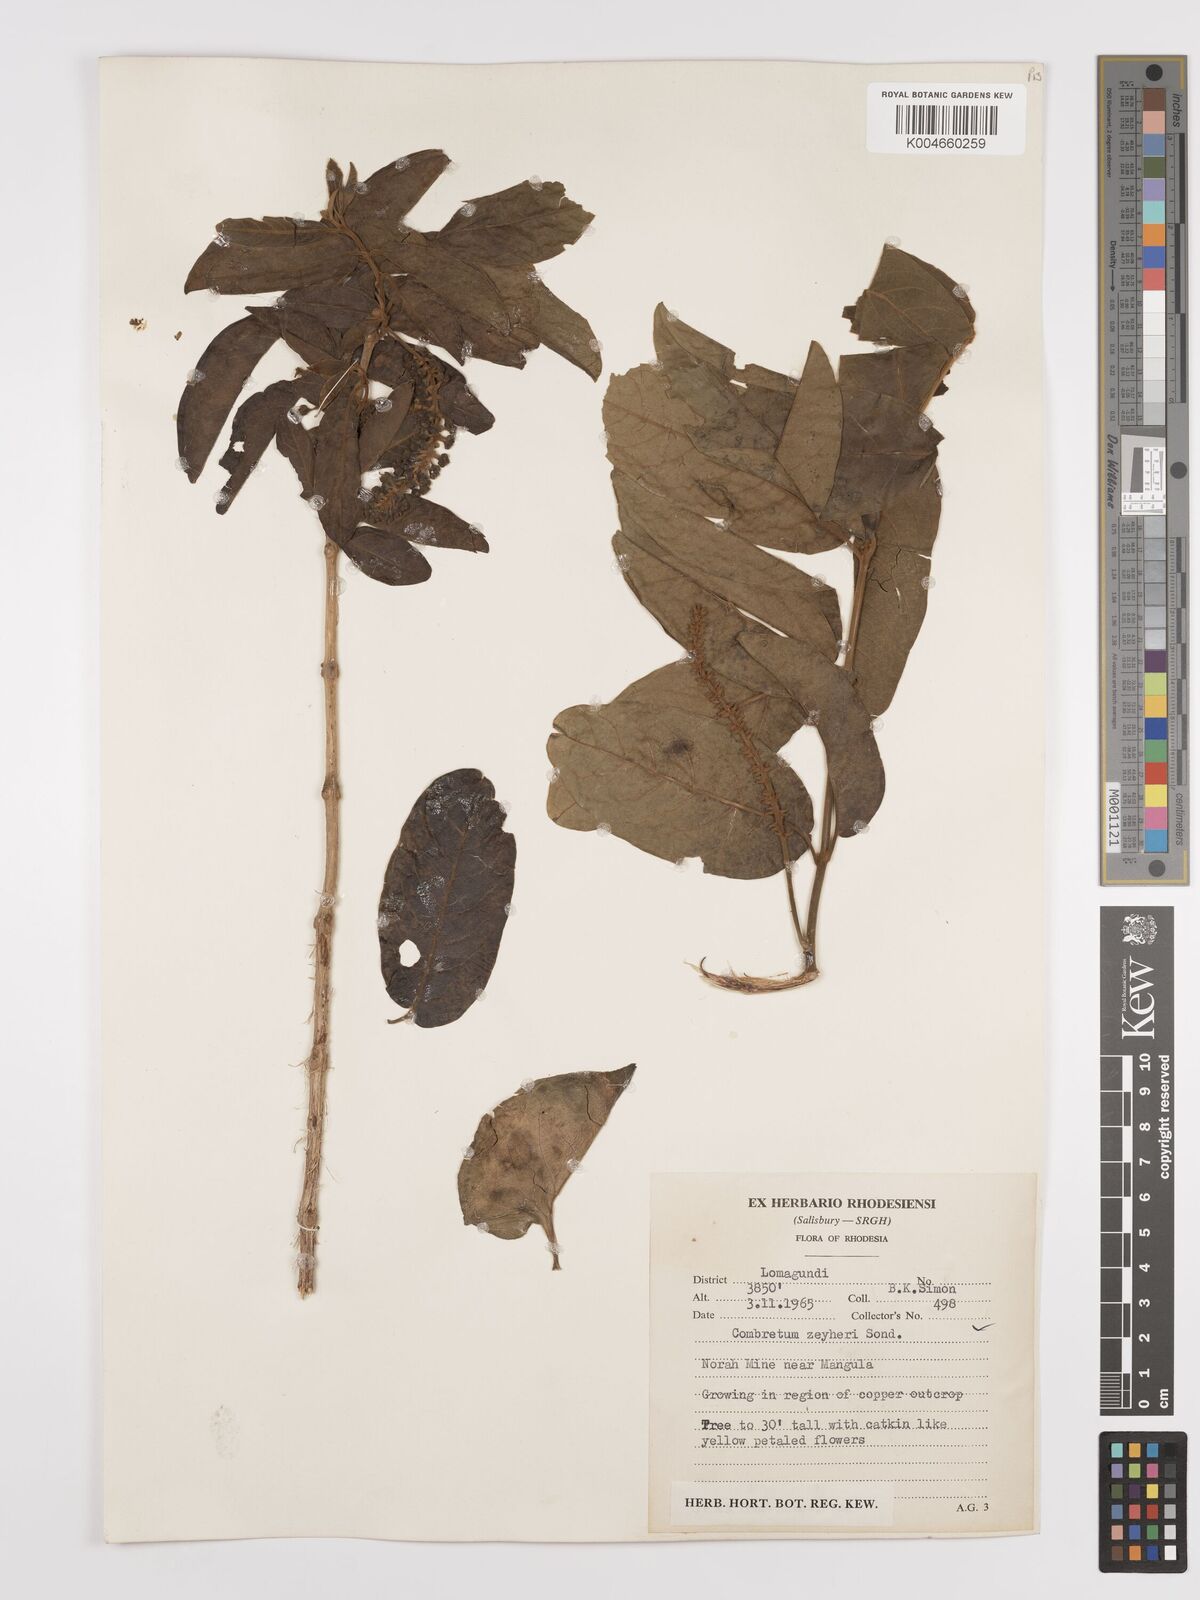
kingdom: Plantae
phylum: Tracheophyta
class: Magnoliopsida
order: Myrtales
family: Combretaceae
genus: Combretum
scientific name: Combretum zeyheri
